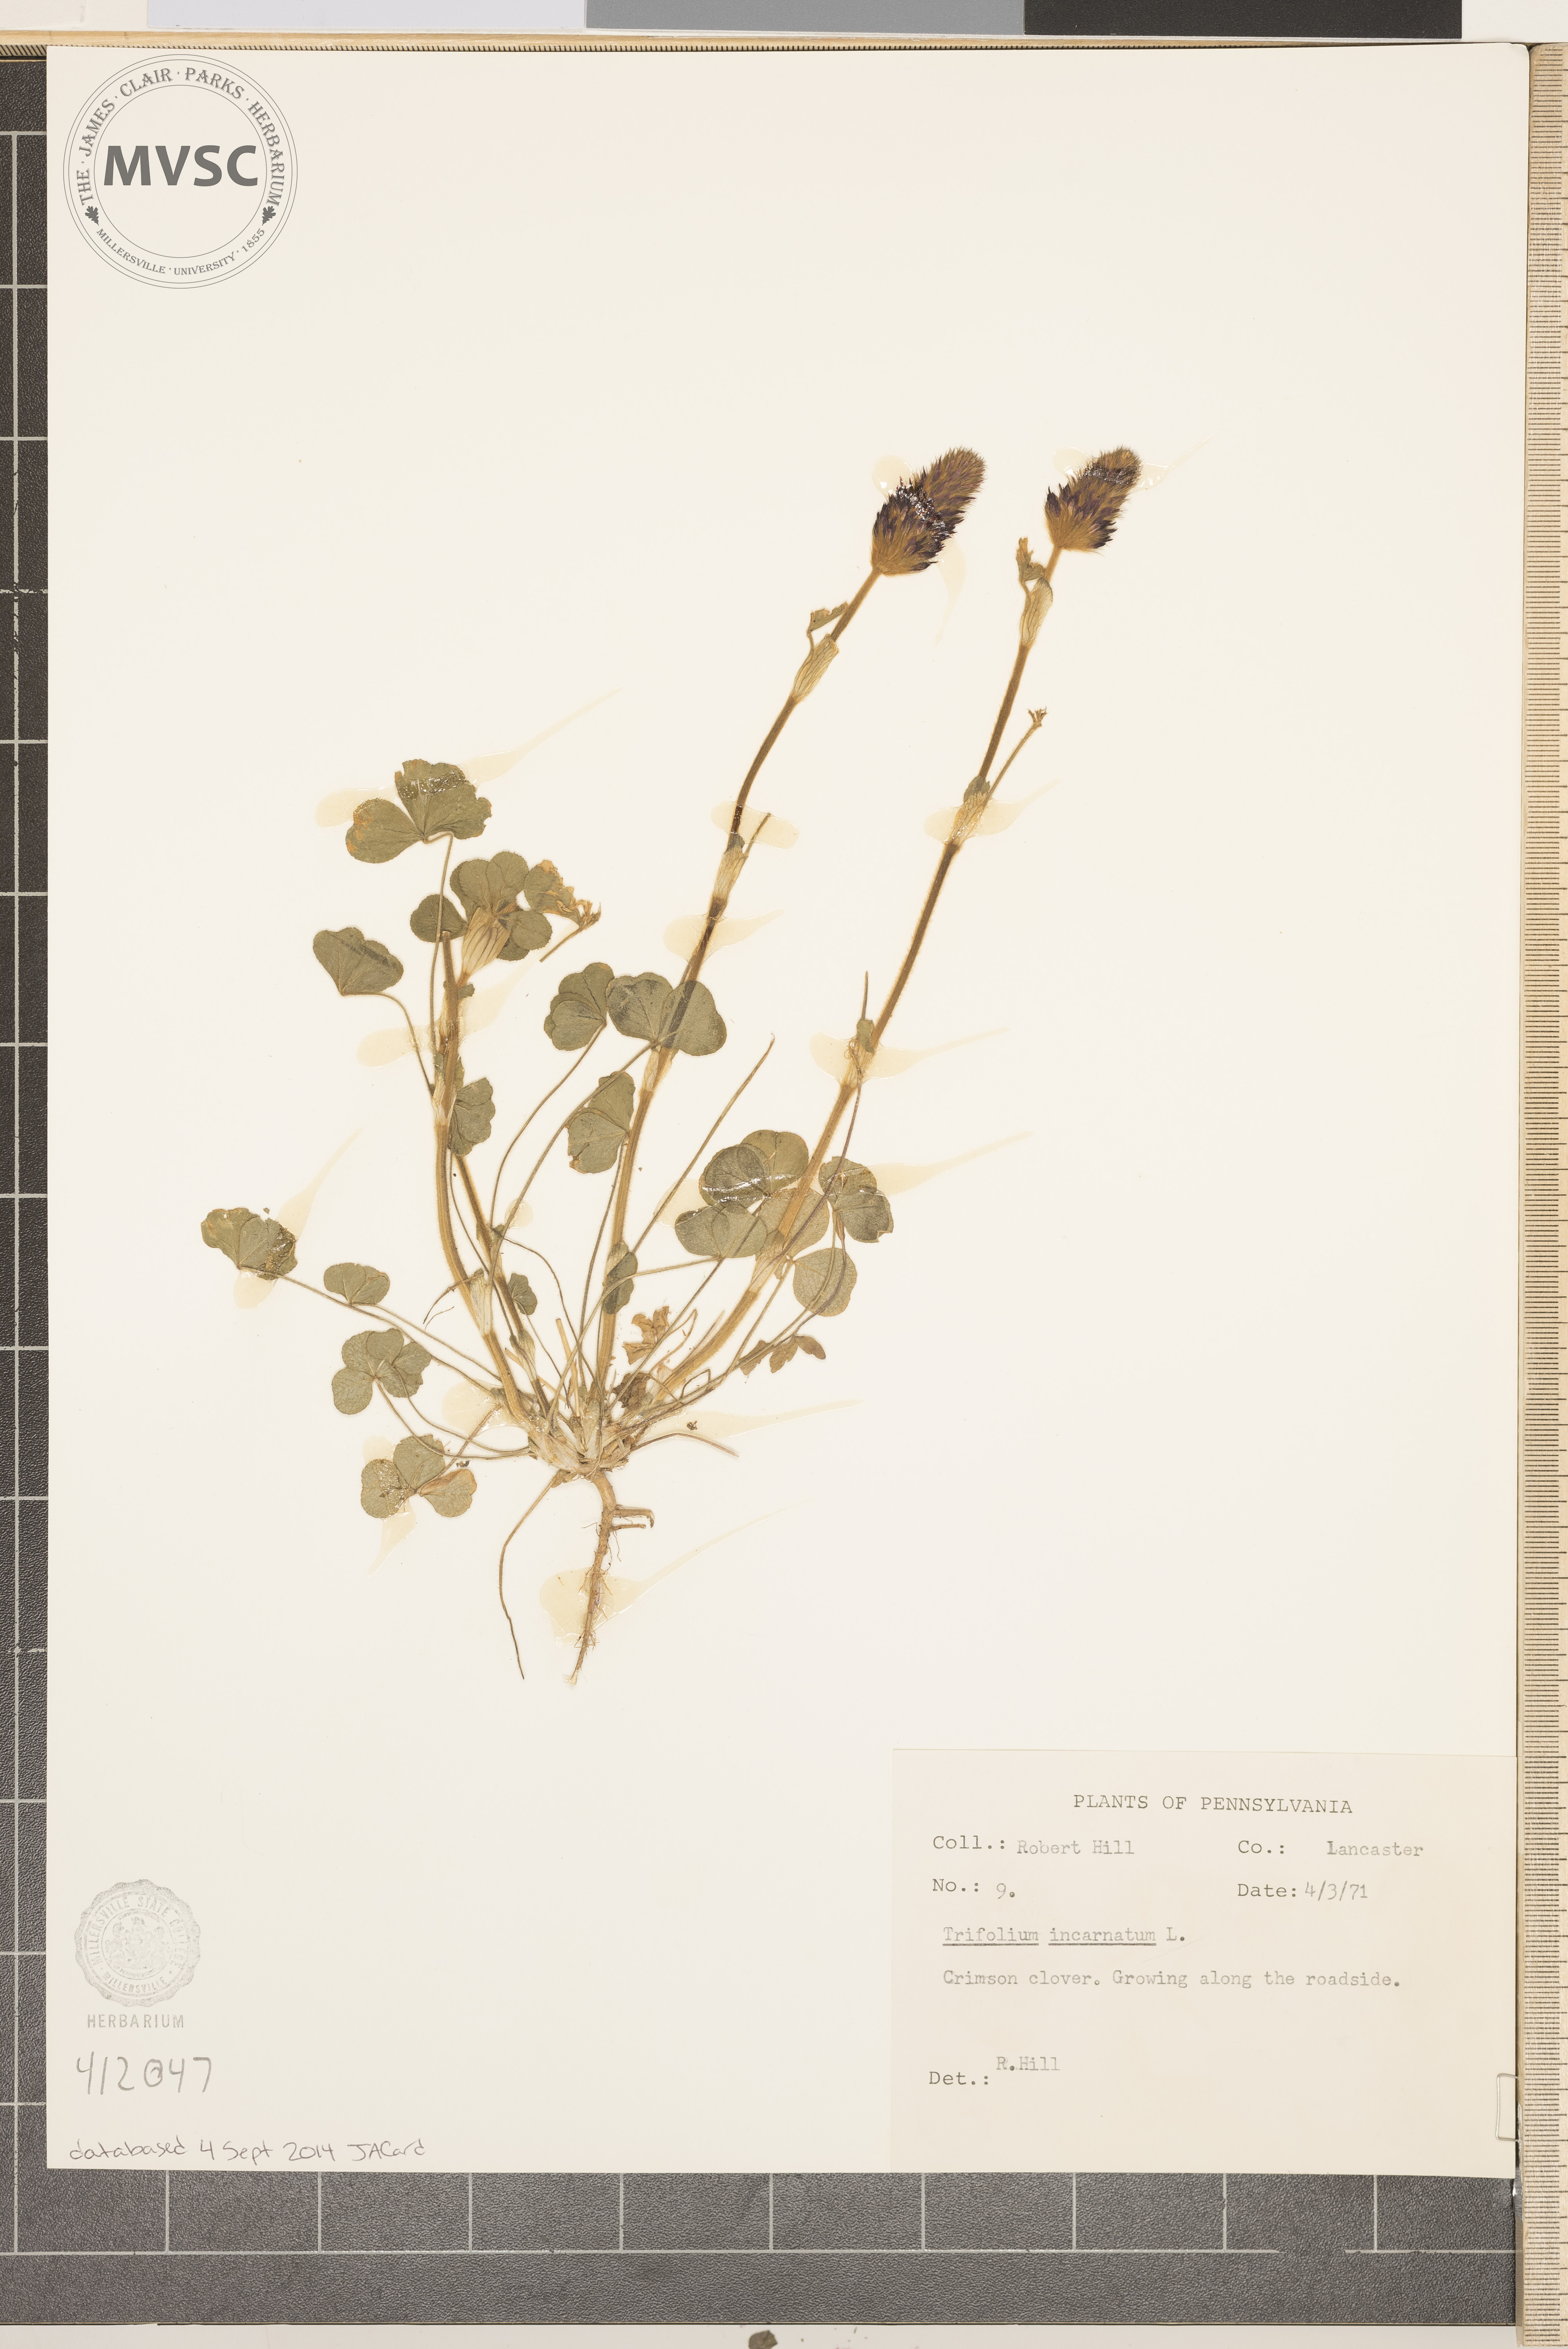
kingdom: Plantae
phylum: Tracheophyta
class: Magnoliopsida
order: Fabales
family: Fabaceae
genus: Trifolium
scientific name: Trifolium incarnatum
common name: Crimson Clover
